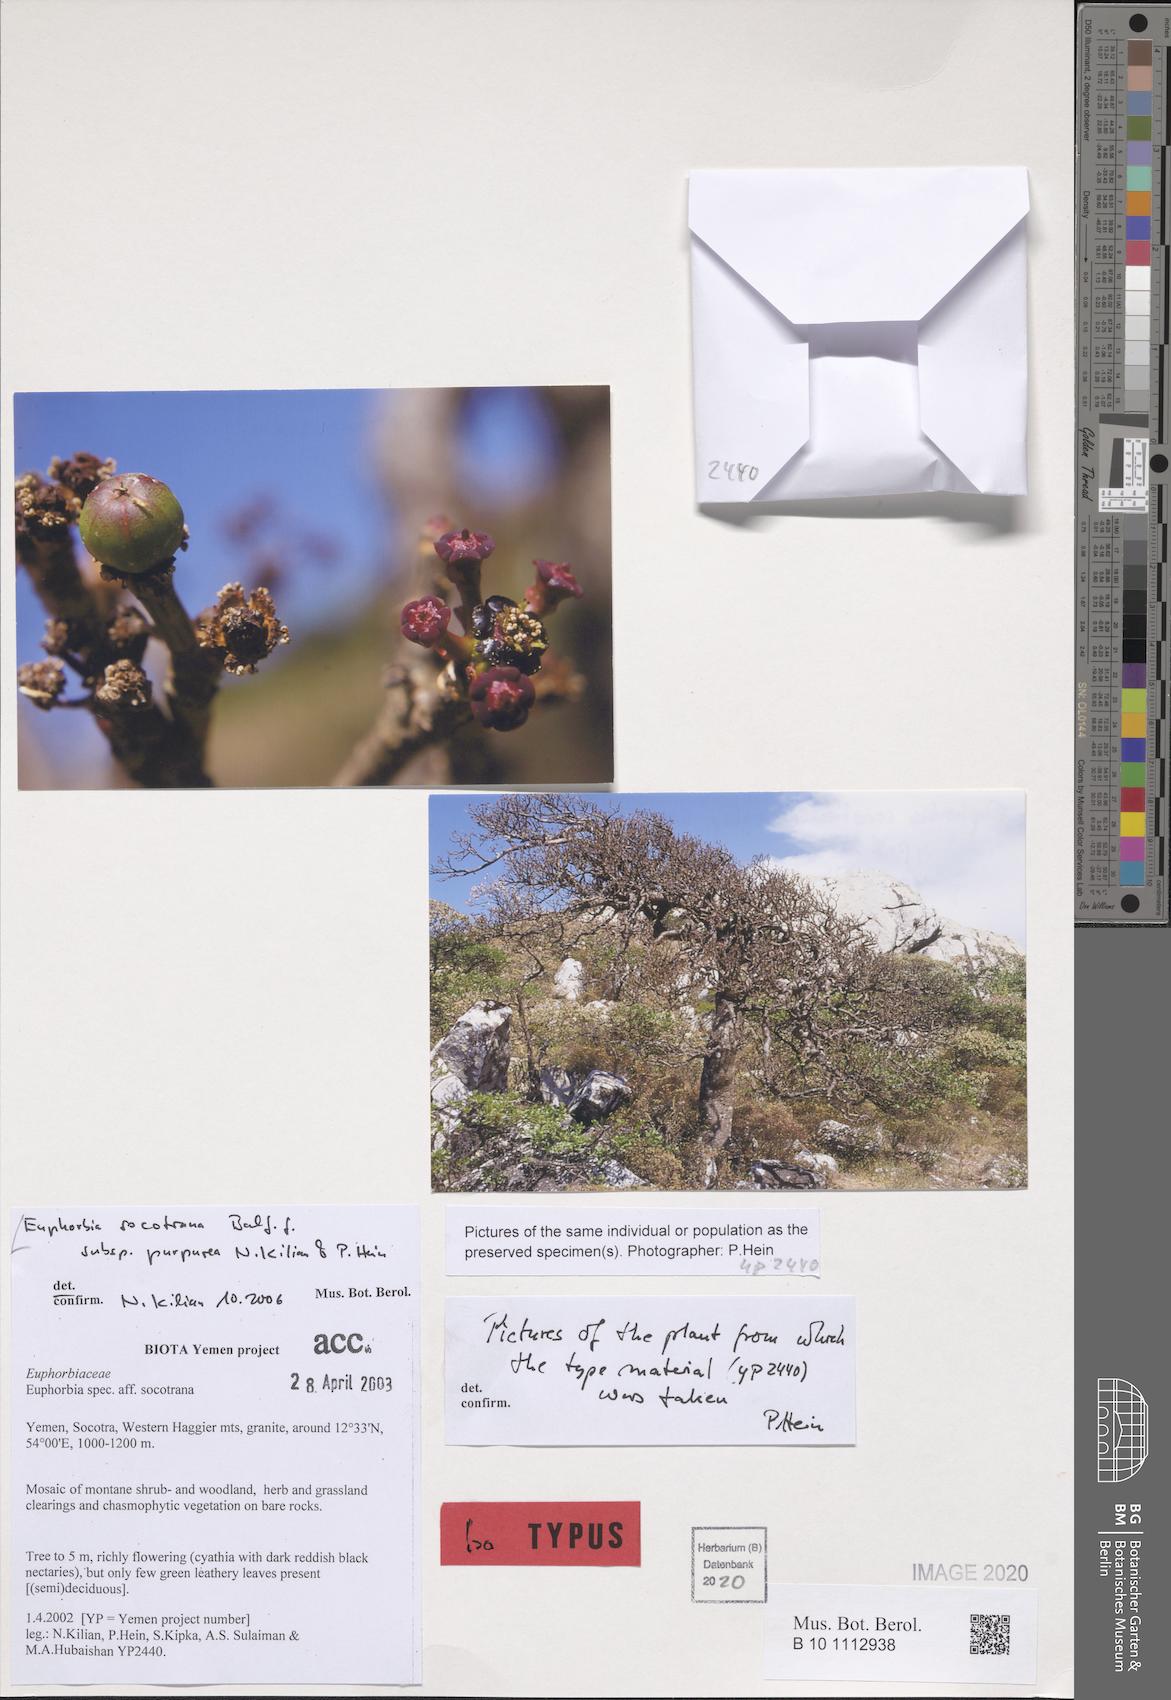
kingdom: Plantae
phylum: Tracheophyta
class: Magnoliopsida
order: Malpighiales
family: Euphorbiaceae
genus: Euphorbia
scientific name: Euphorbia socotrana
